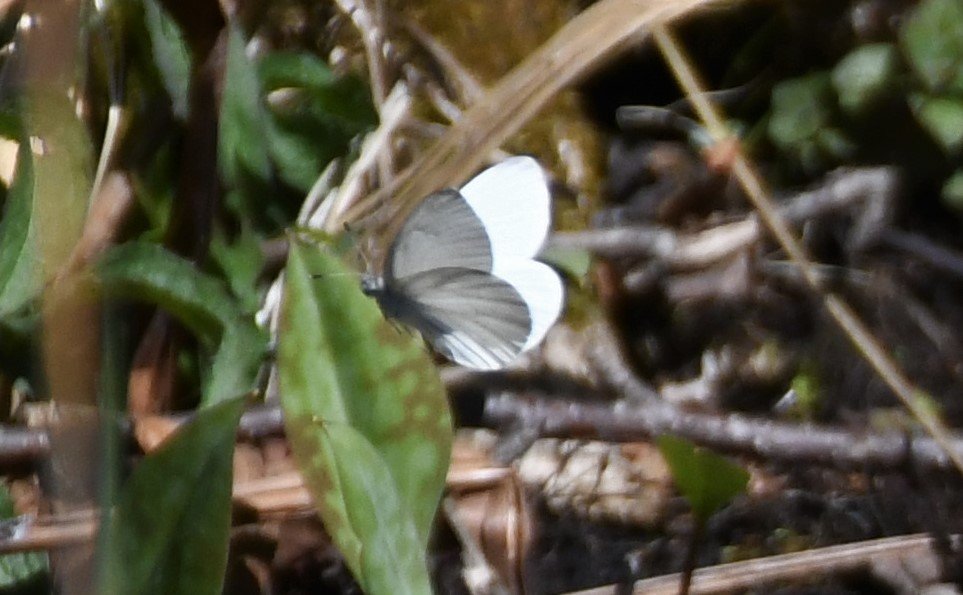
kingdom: Animalia
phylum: Arthropoda
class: Insecta
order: Lepidoptera
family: Pieridae
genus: Pieris
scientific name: Pieris virginiensis
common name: West Virginia White
